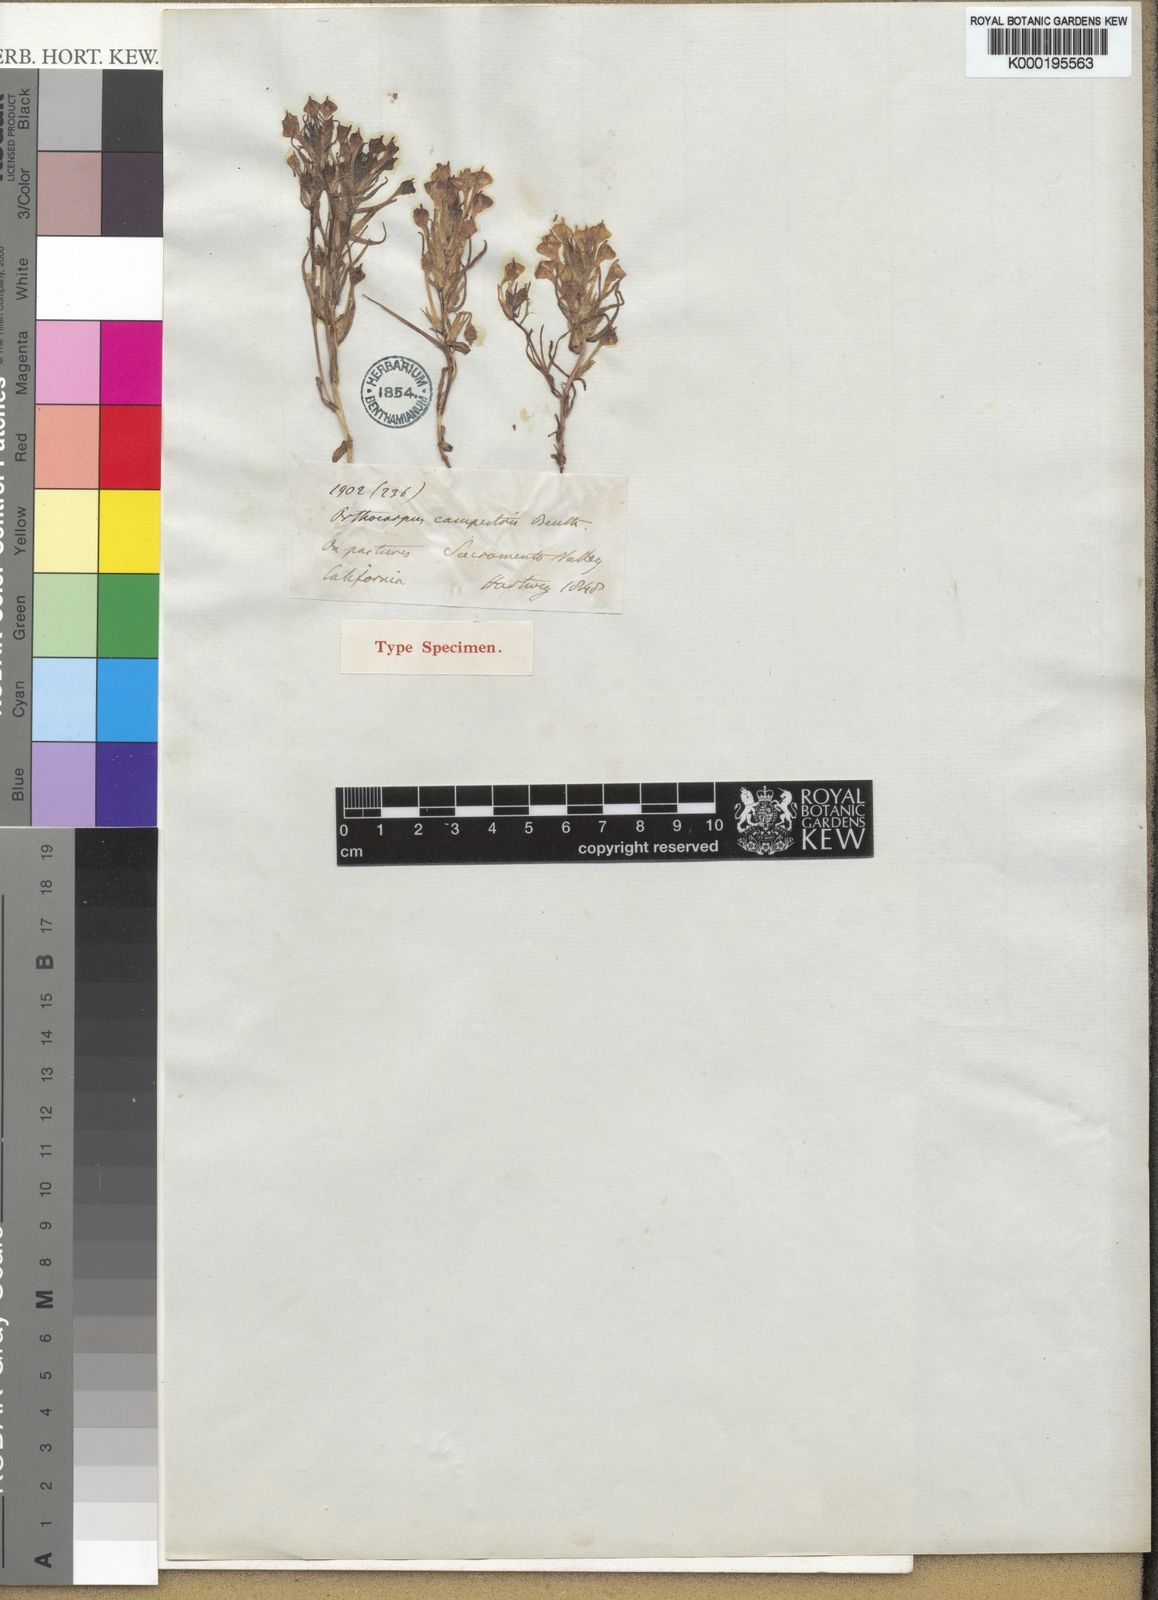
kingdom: Plantae
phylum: Tracheophyta
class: Magnoliopsida
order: Lamiales
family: Orobanchaceae
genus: Castilleja
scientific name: Castilleja campestris
